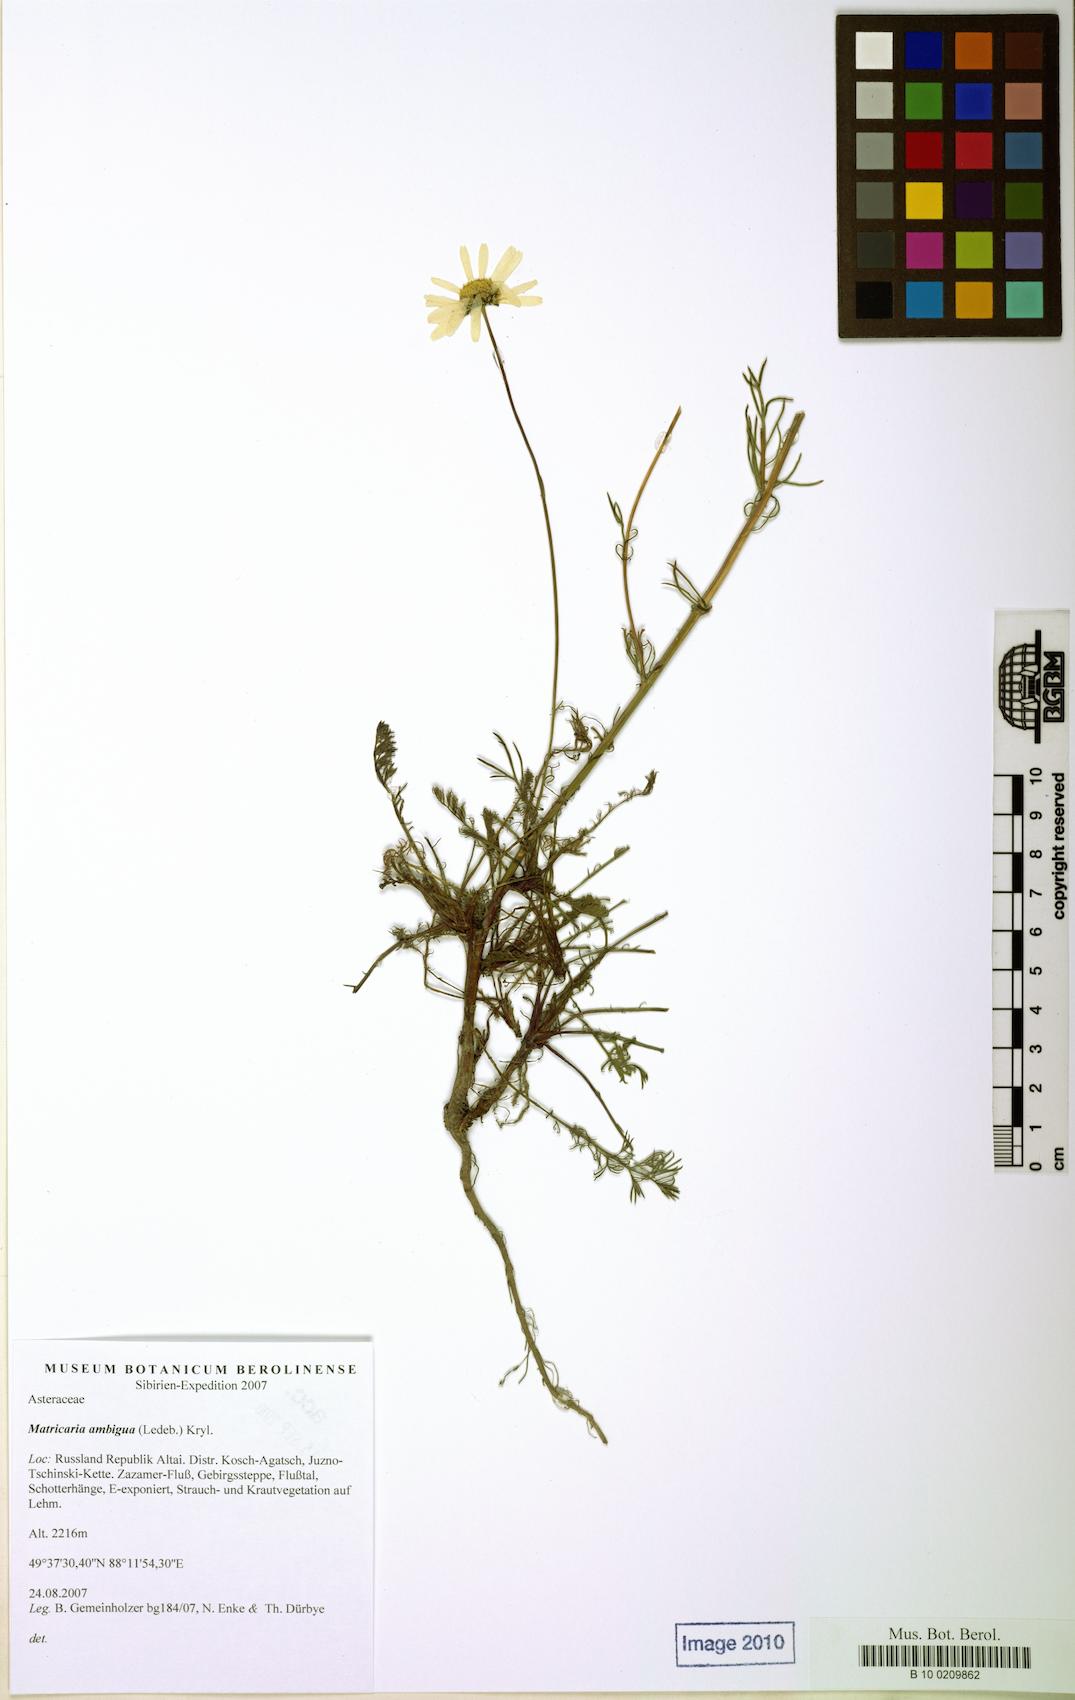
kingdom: Plantae
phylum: Tracheophyta
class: Magnoliopsida
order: Asterales
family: Asteraceae
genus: Tripleurospermum
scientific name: Tripleurospermum ambiguum
